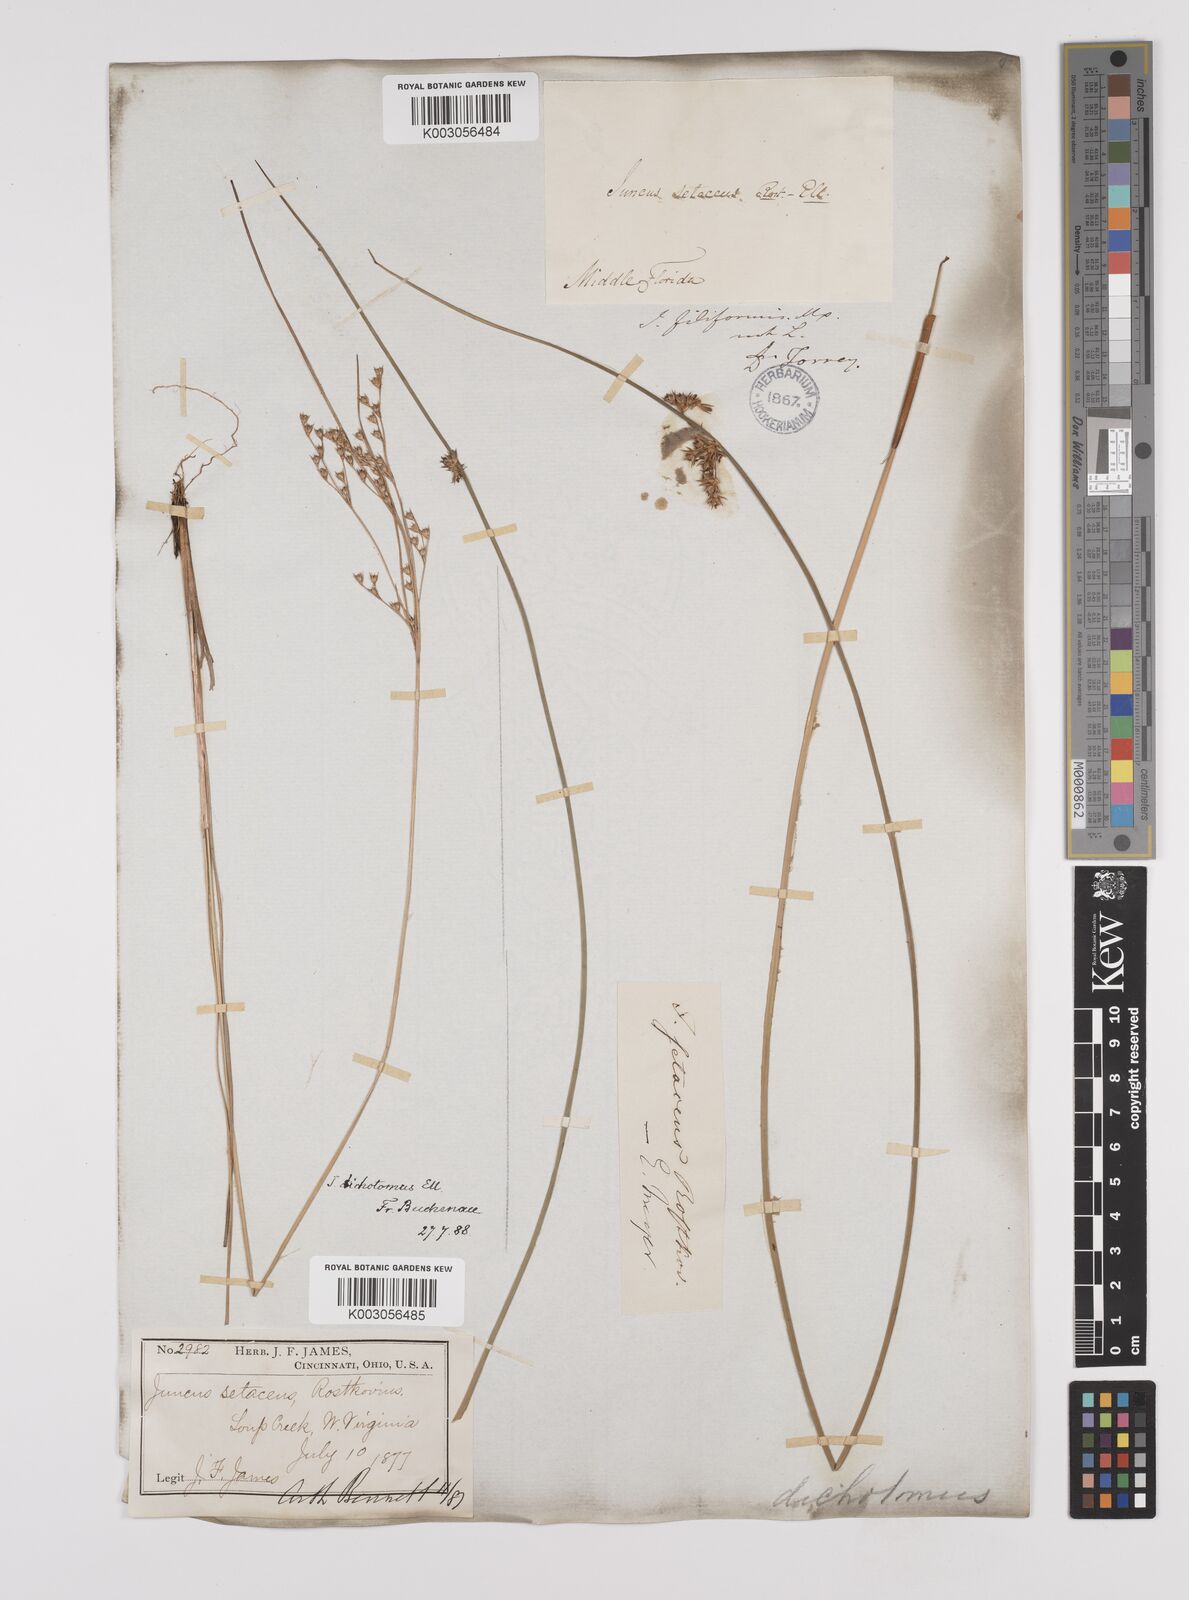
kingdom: Plantae
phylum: Tracheophyta
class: Liliopsida
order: Poales
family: Juncaceae
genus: Juncus
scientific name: Juncus dichotomus
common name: Forked rush
